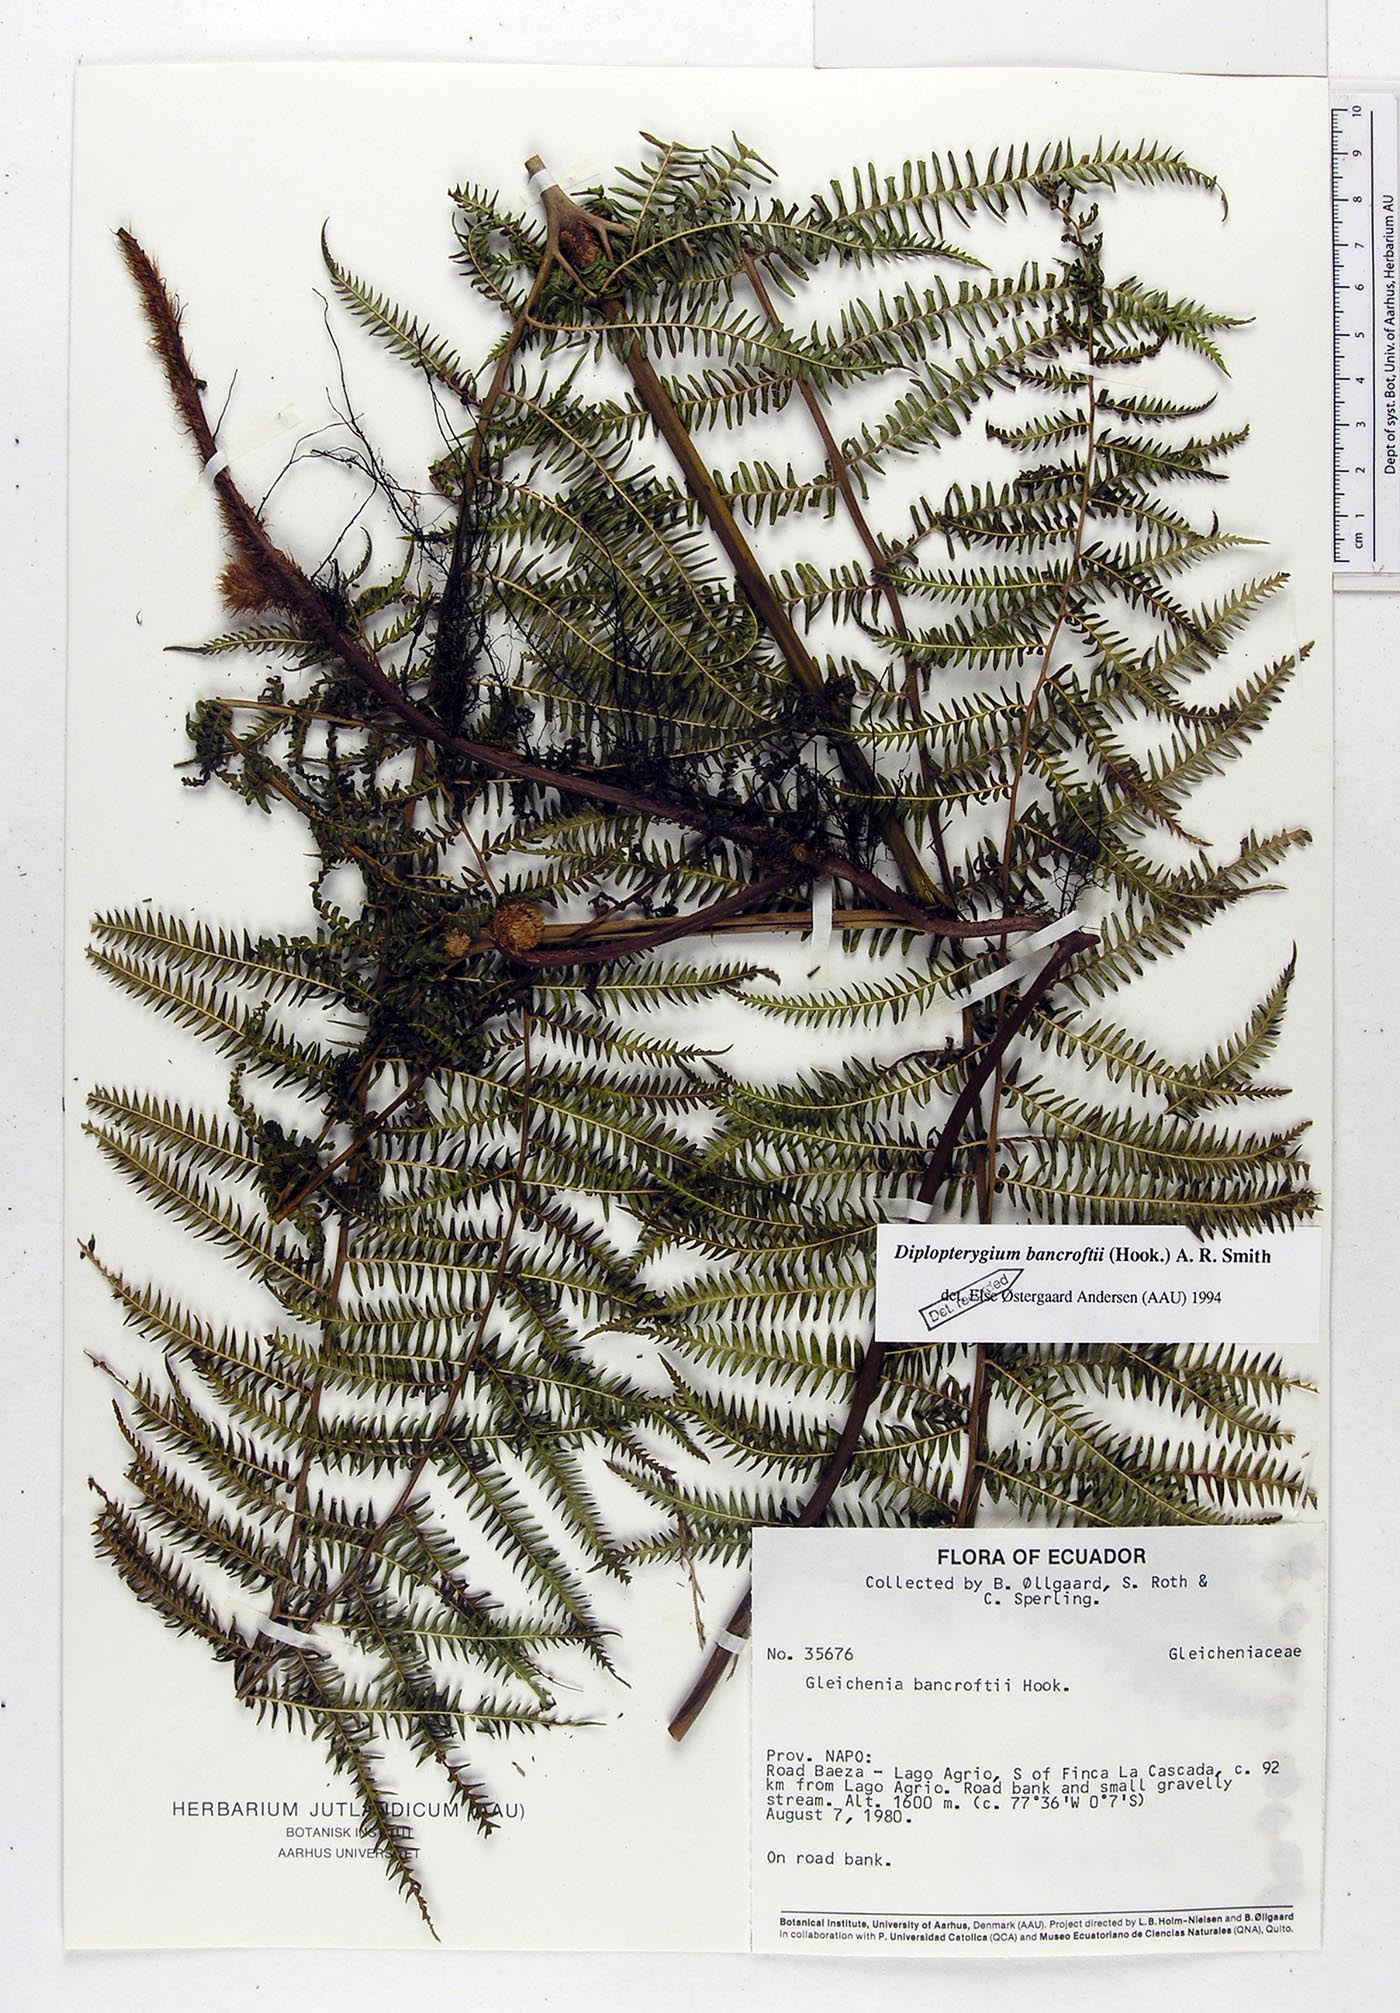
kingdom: Plantae
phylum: Tracheophyta
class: Polypodiopsida
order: Gleicheniales
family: Gleicheniaceae
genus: Diplopterygium
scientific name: Diplopterygium bancroftii
